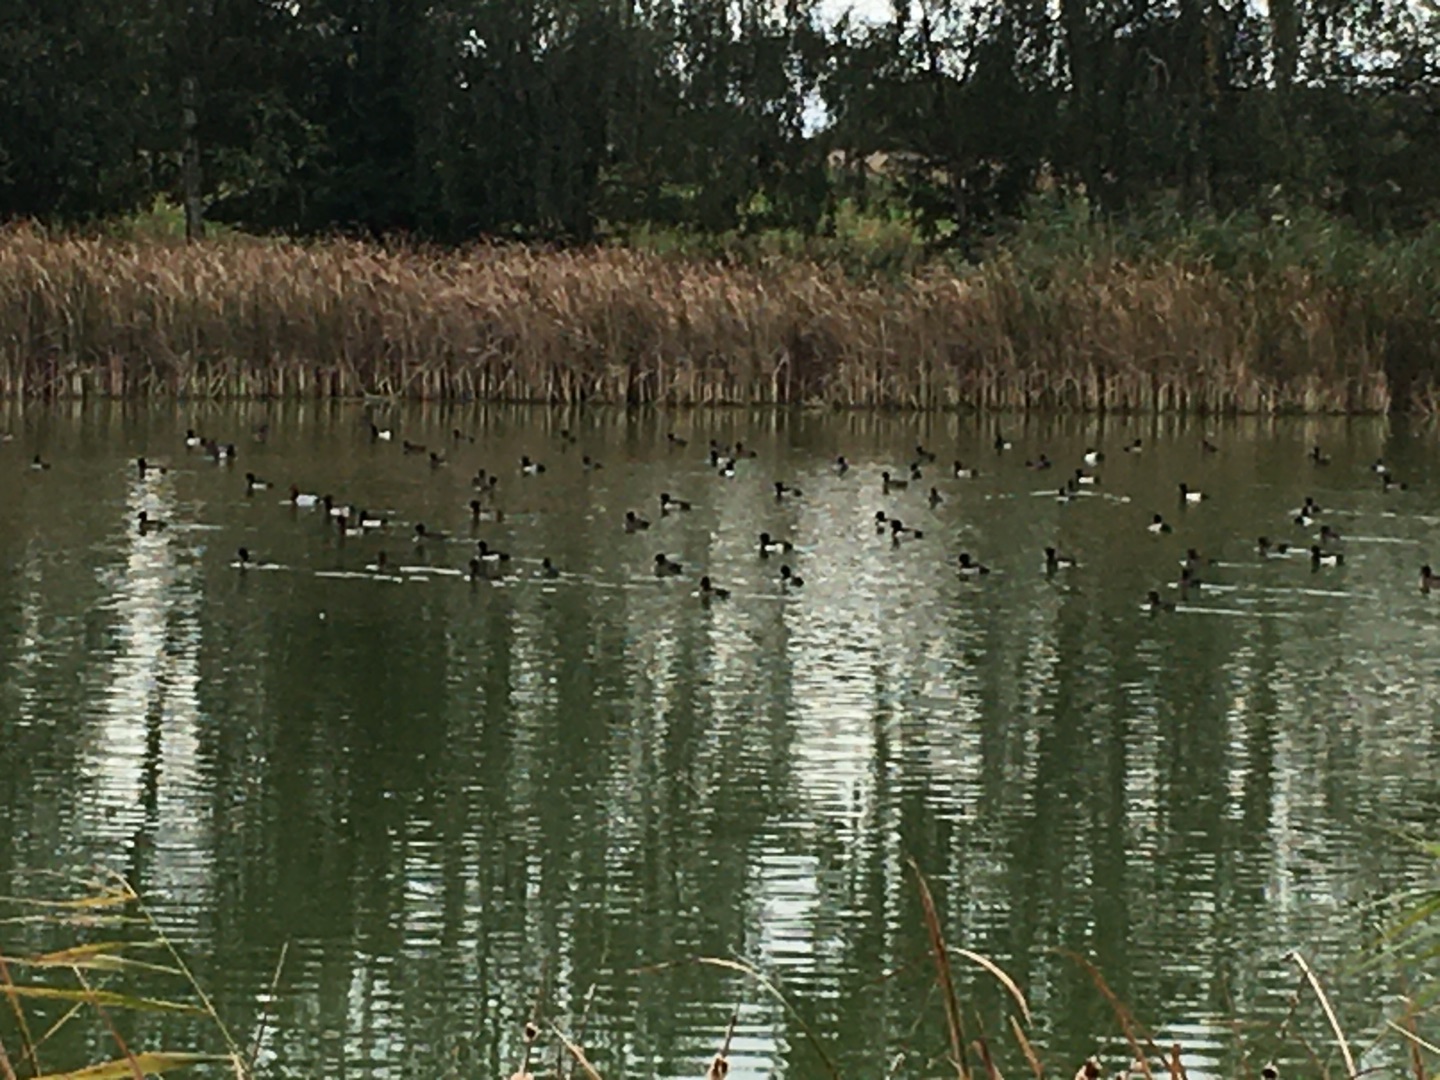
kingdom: Animalia
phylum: Chordata
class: Aves
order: Anseriformes
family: Anatidae
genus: Aythya
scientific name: Aythya fuligula
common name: Troldand
